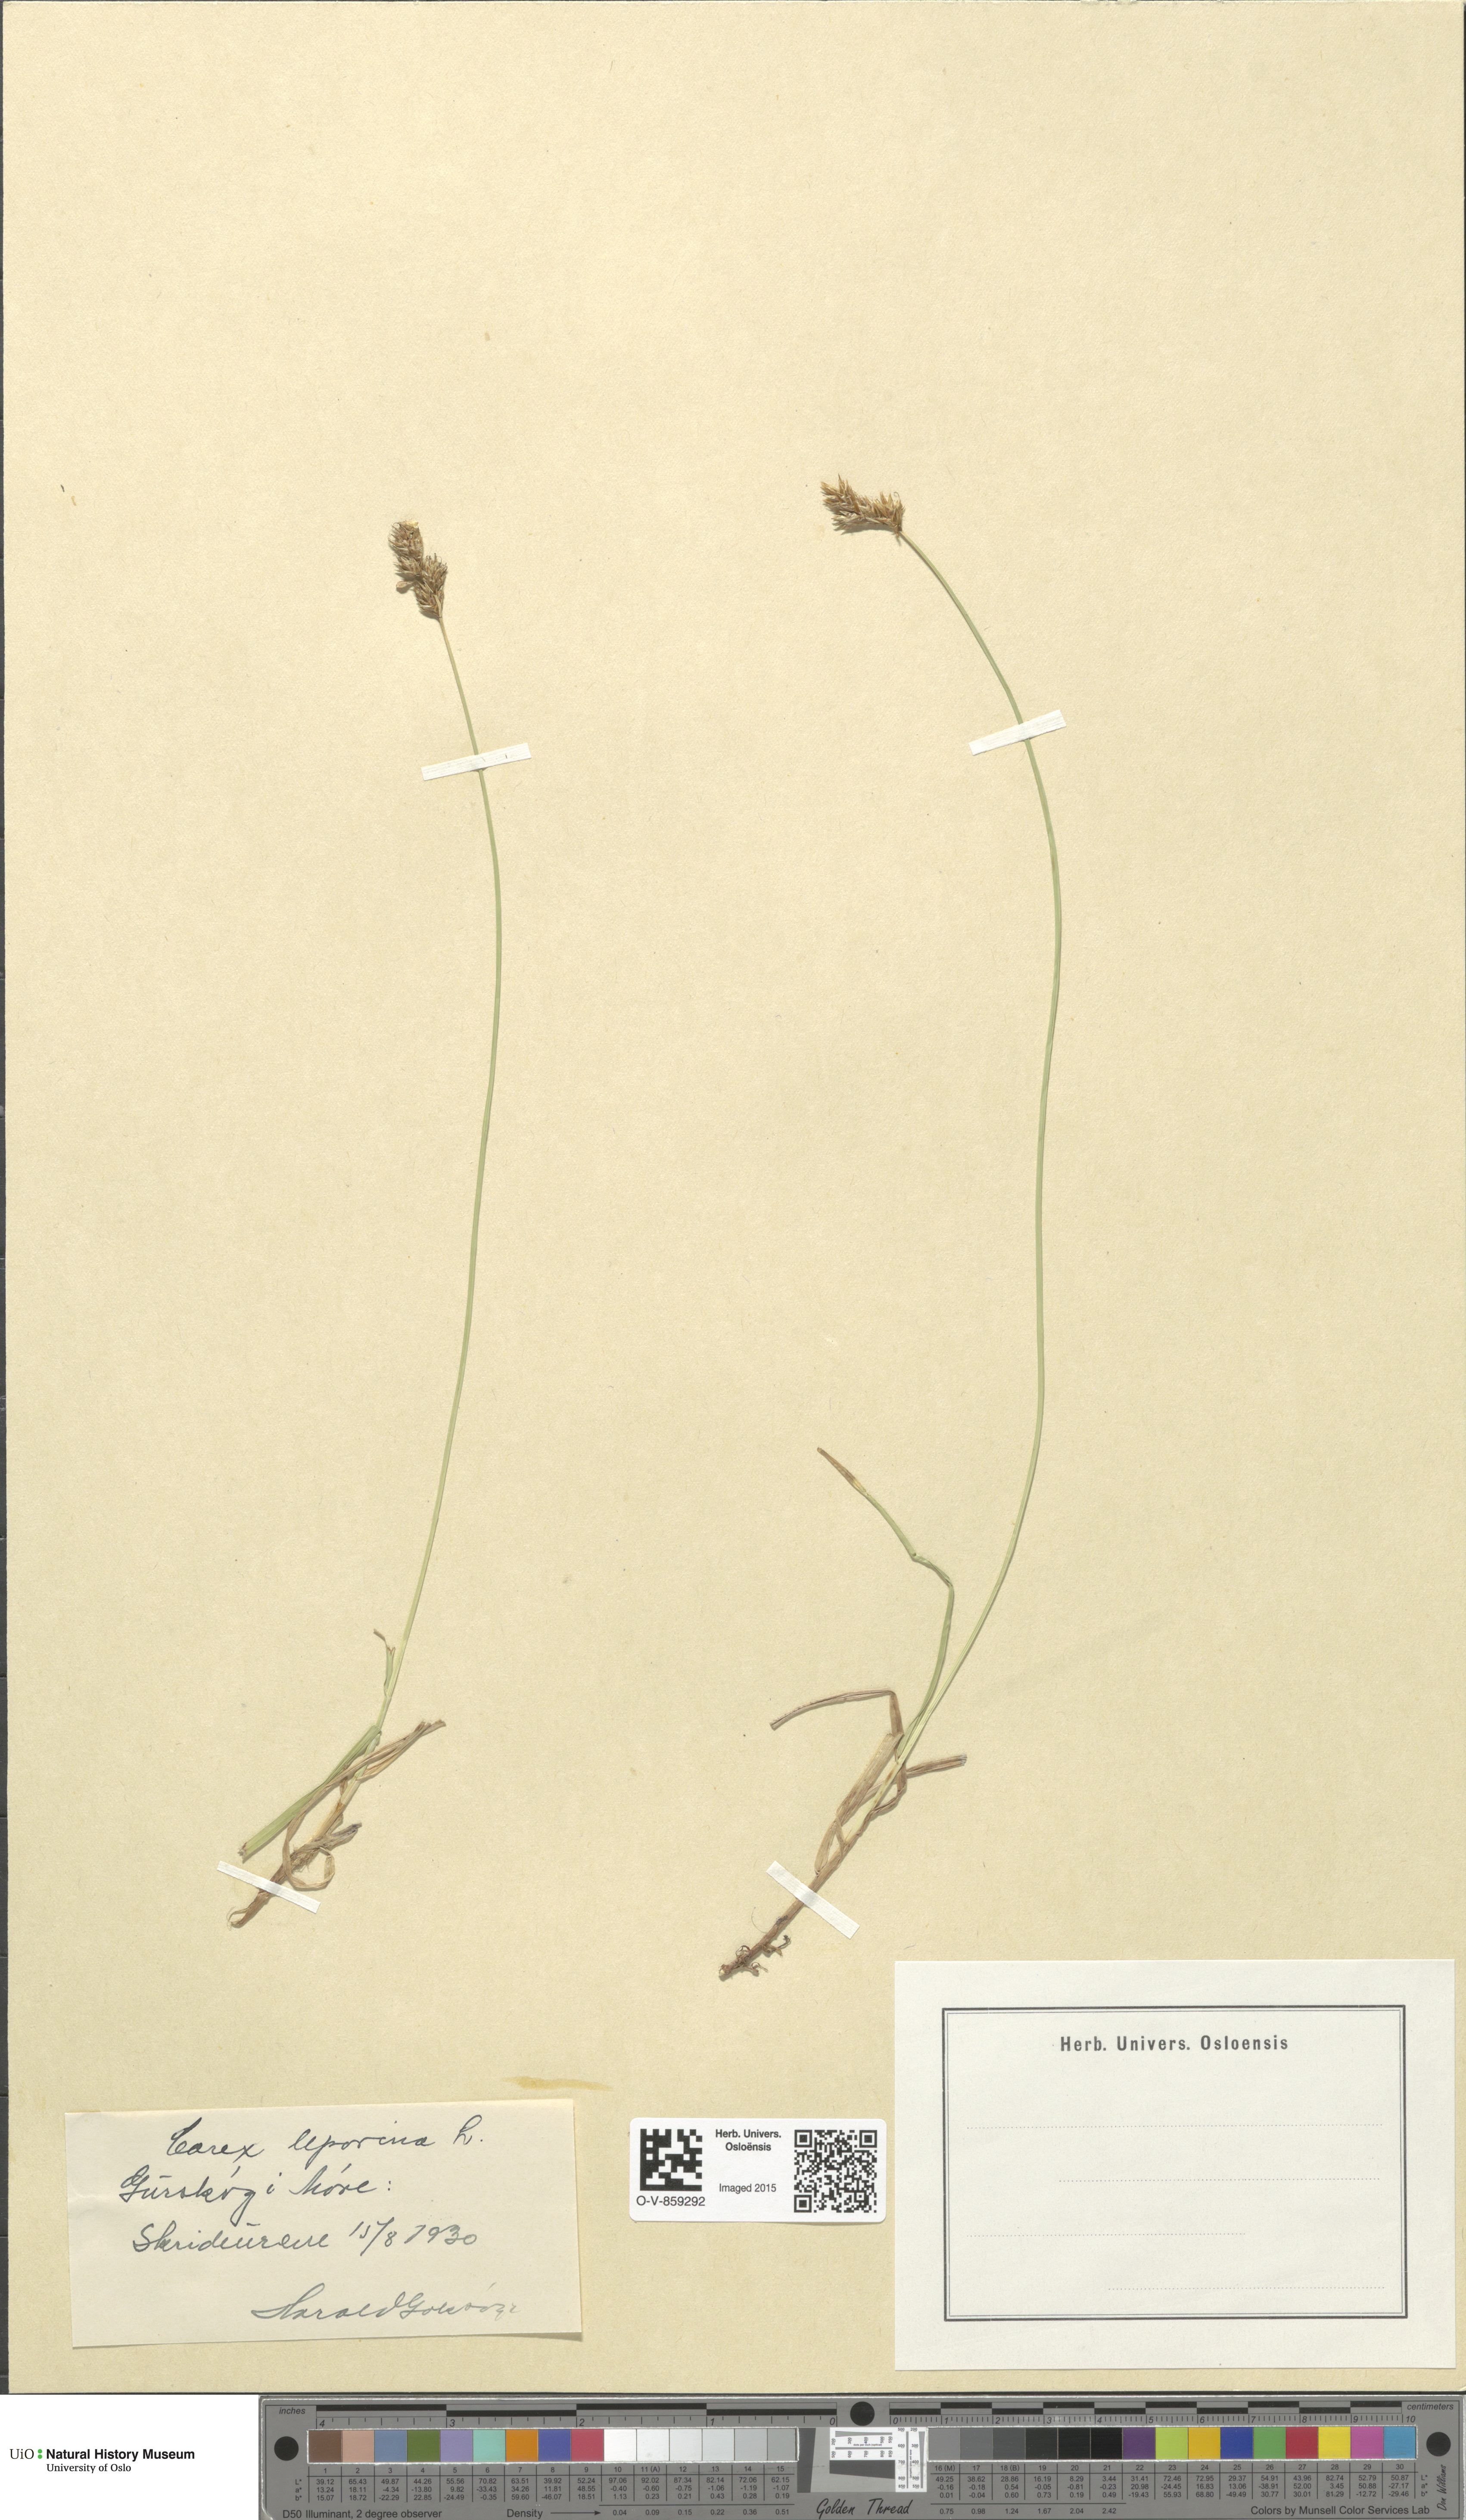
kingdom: Plantae
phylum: Tracheophyta
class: Liliopsida
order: Poales
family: Cyperaceae
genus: Carex
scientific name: Carex leporina
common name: Oval sedge
